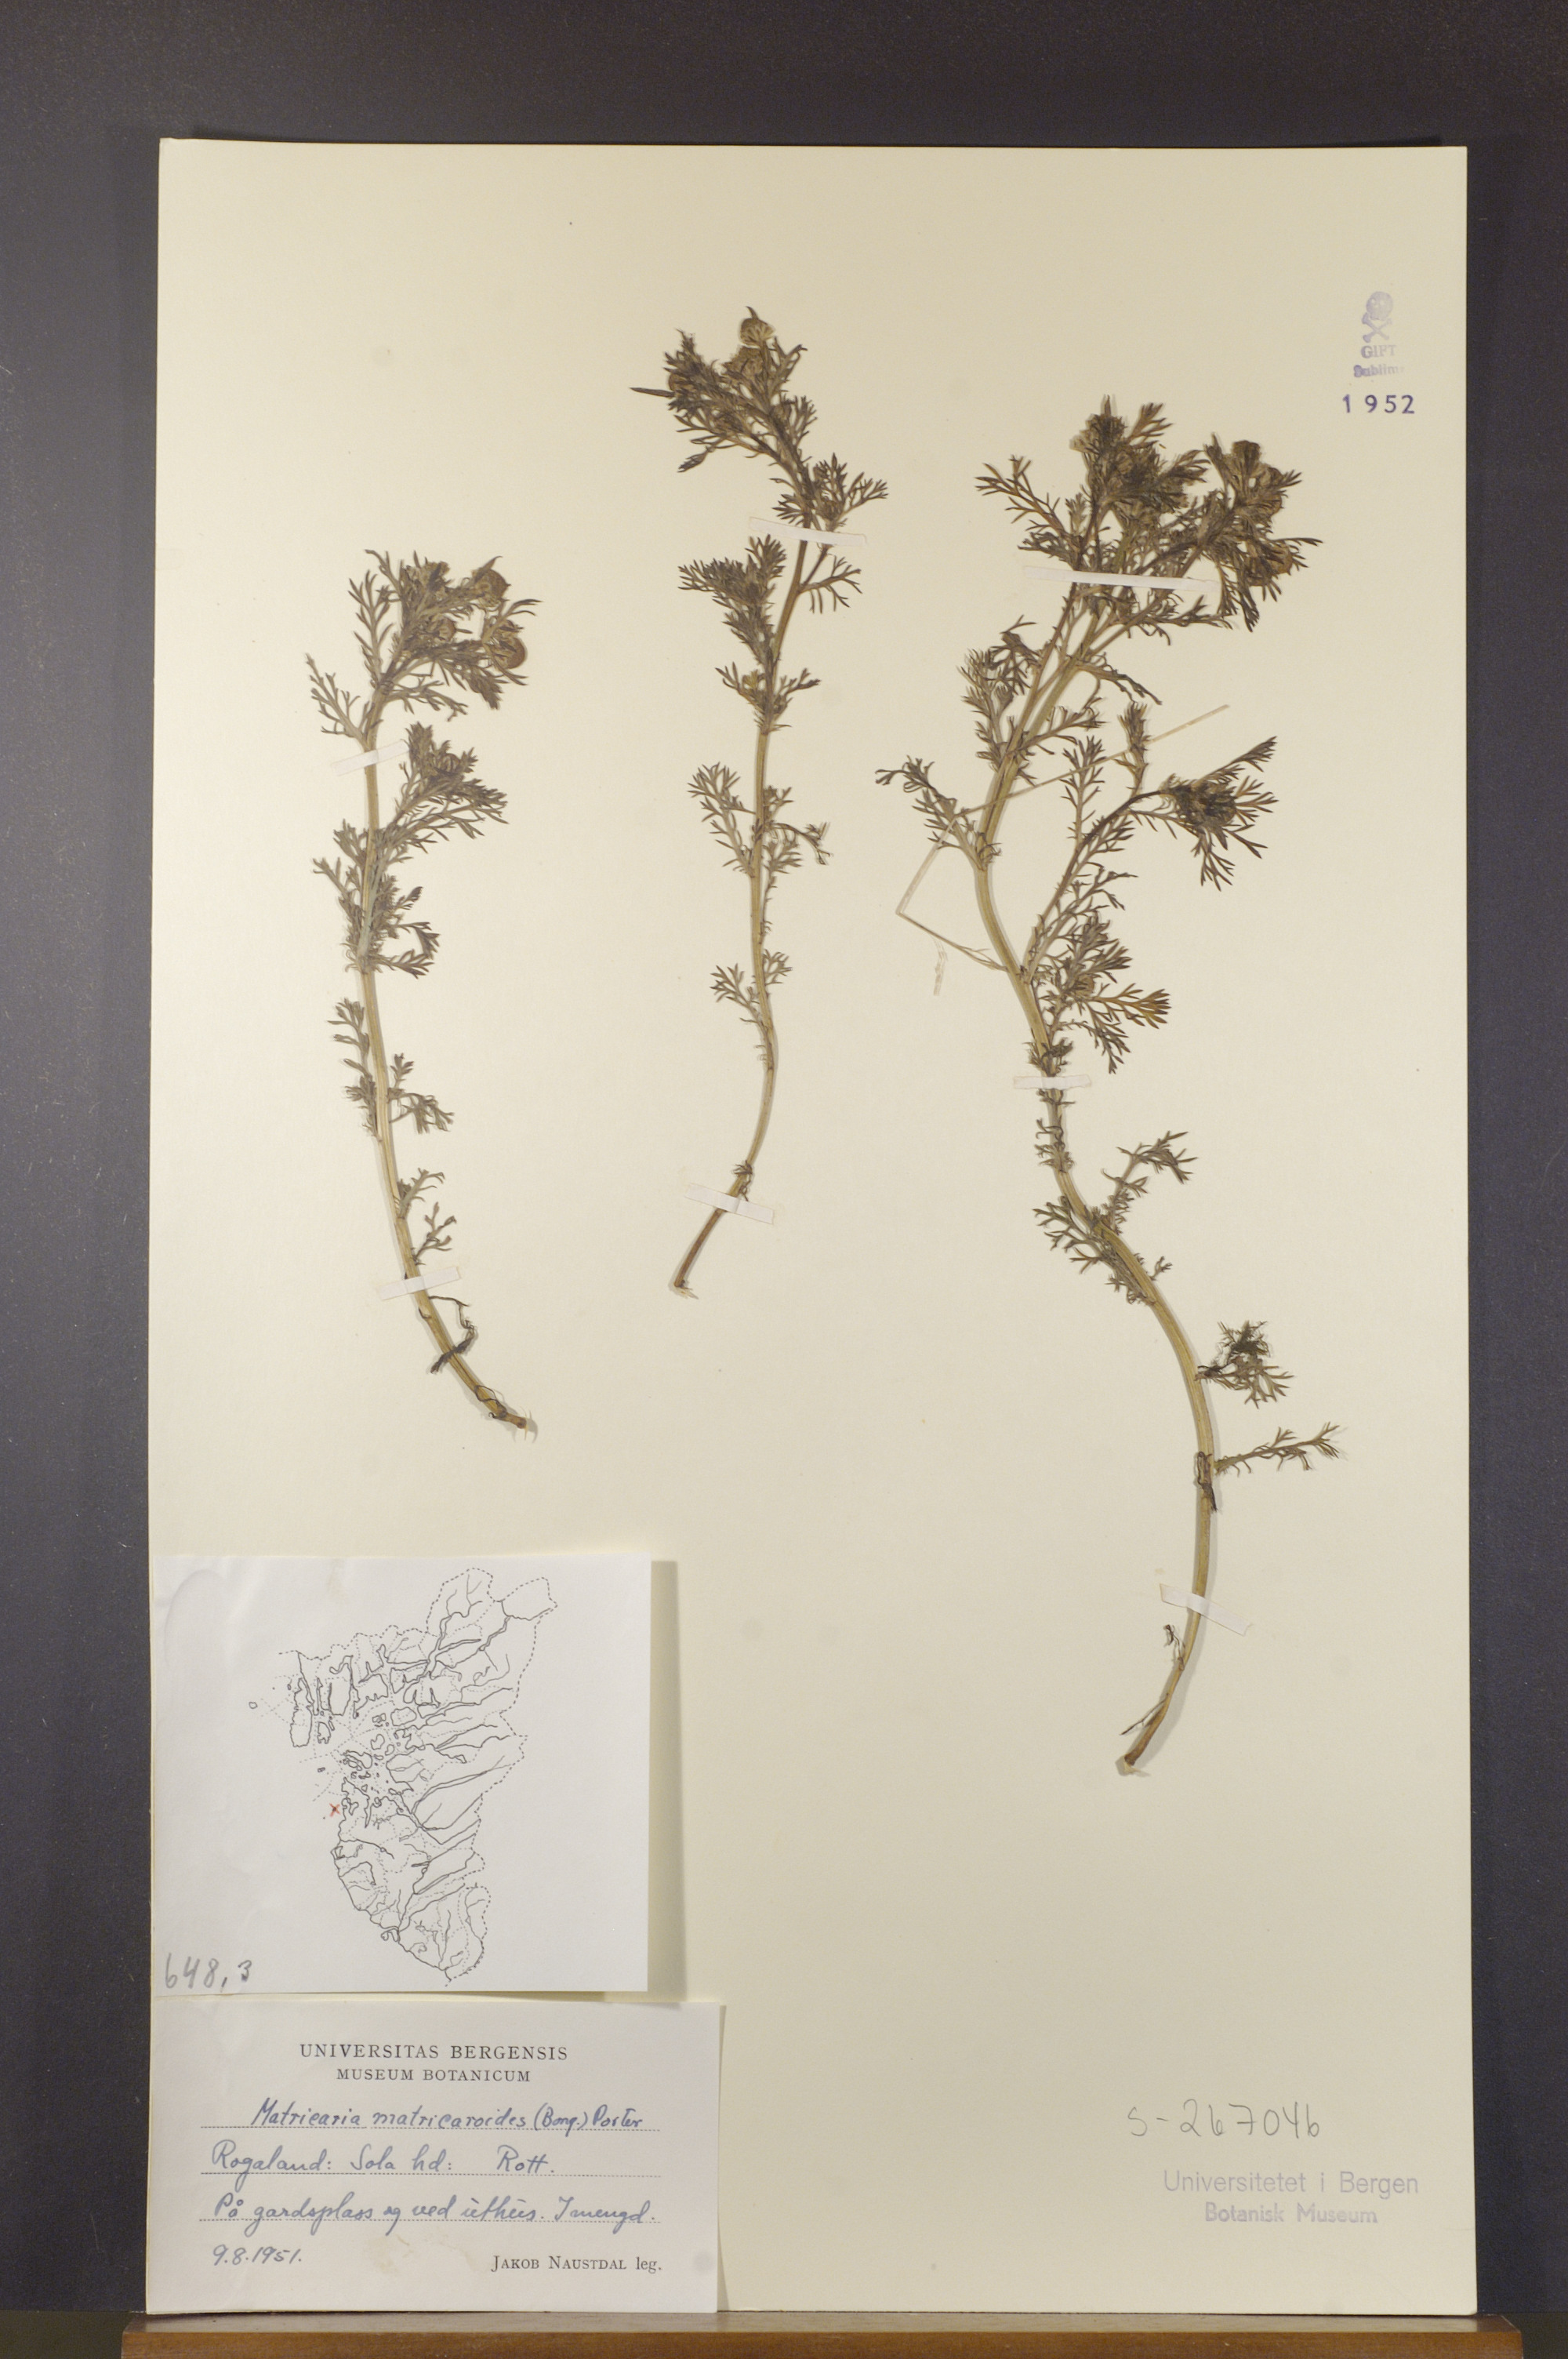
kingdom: Plantae
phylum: Tracheophyta
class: Magnoliopsida
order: Asterales
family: Asteraceae
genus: Matricaria
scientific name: Matricaria discoidea
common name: Disc mayweed
